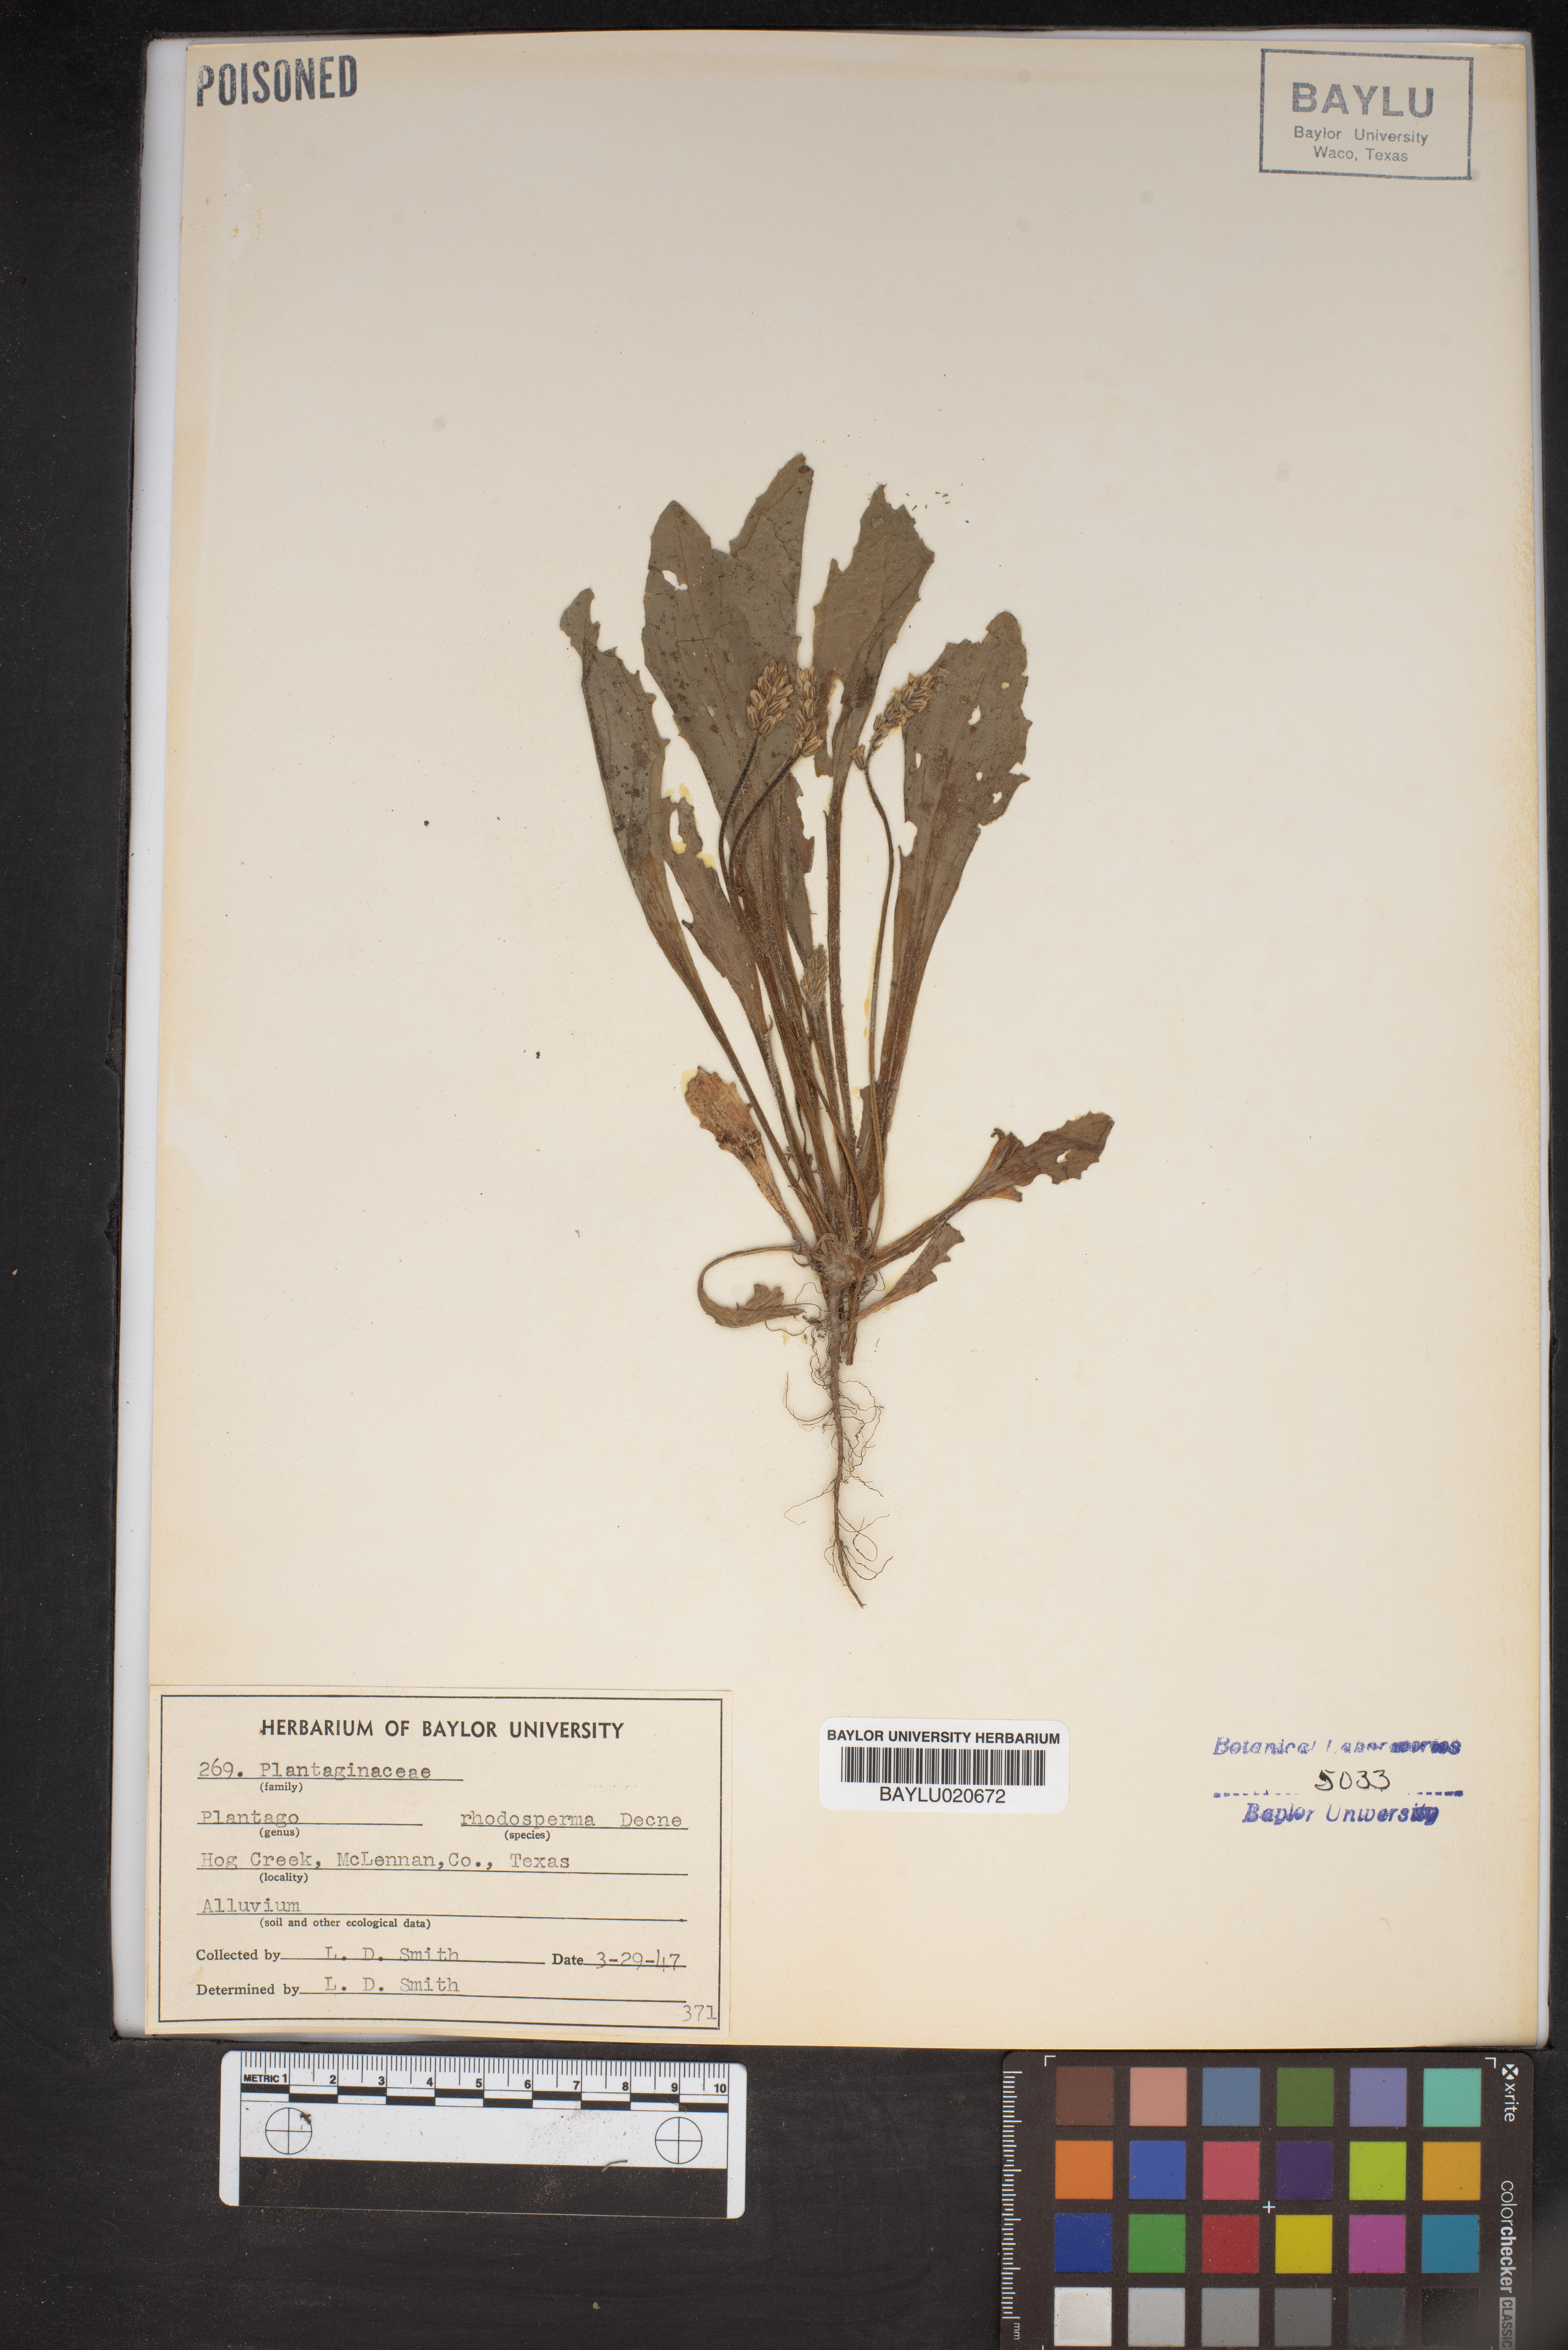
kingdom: Plantae
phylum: Tracheophyta
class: Magnoliopsida
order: Lamiales
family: Plantaginaceae
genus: Plantago
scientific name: Plantago rhodosperma
